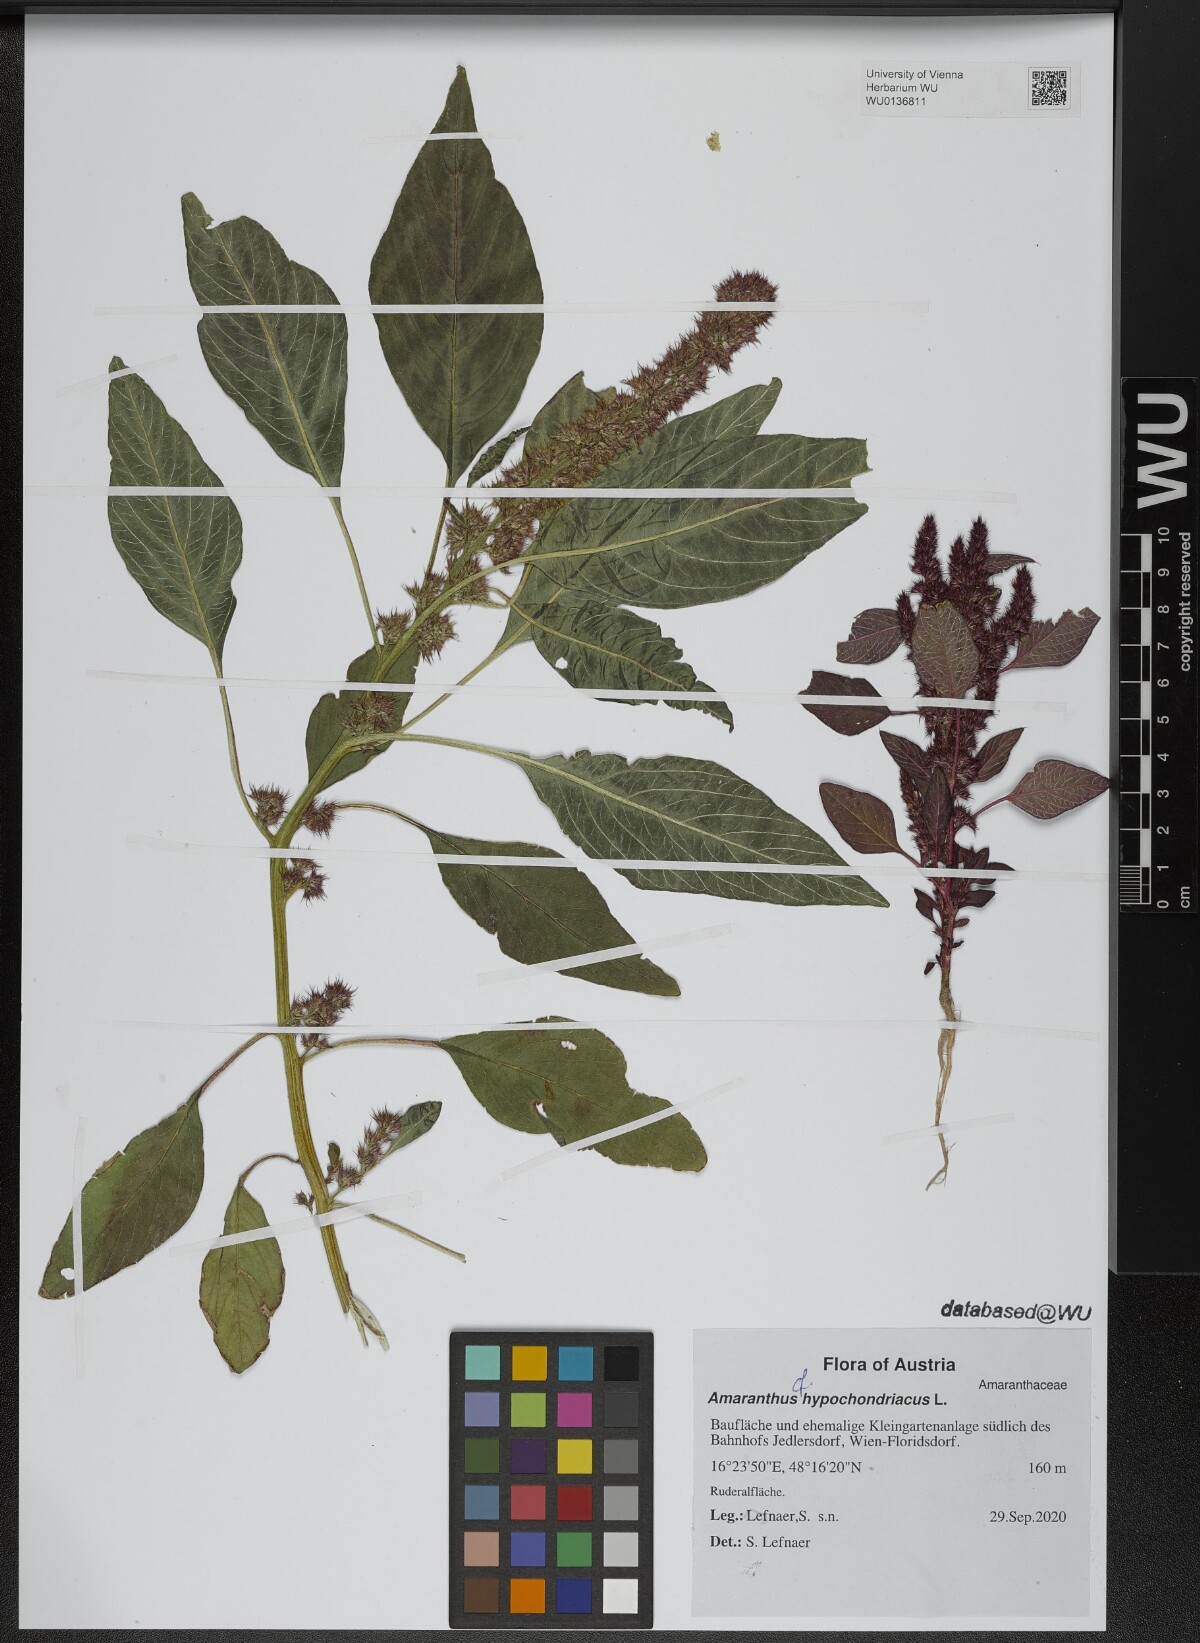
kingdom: Plantae
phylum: Tracheophyta
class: Magnoliopsida
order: Caryophyllales
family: Amaranthaceae
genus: Amaranthus
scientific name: Amaranthus hypochondriacus
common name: Prince's-feather
